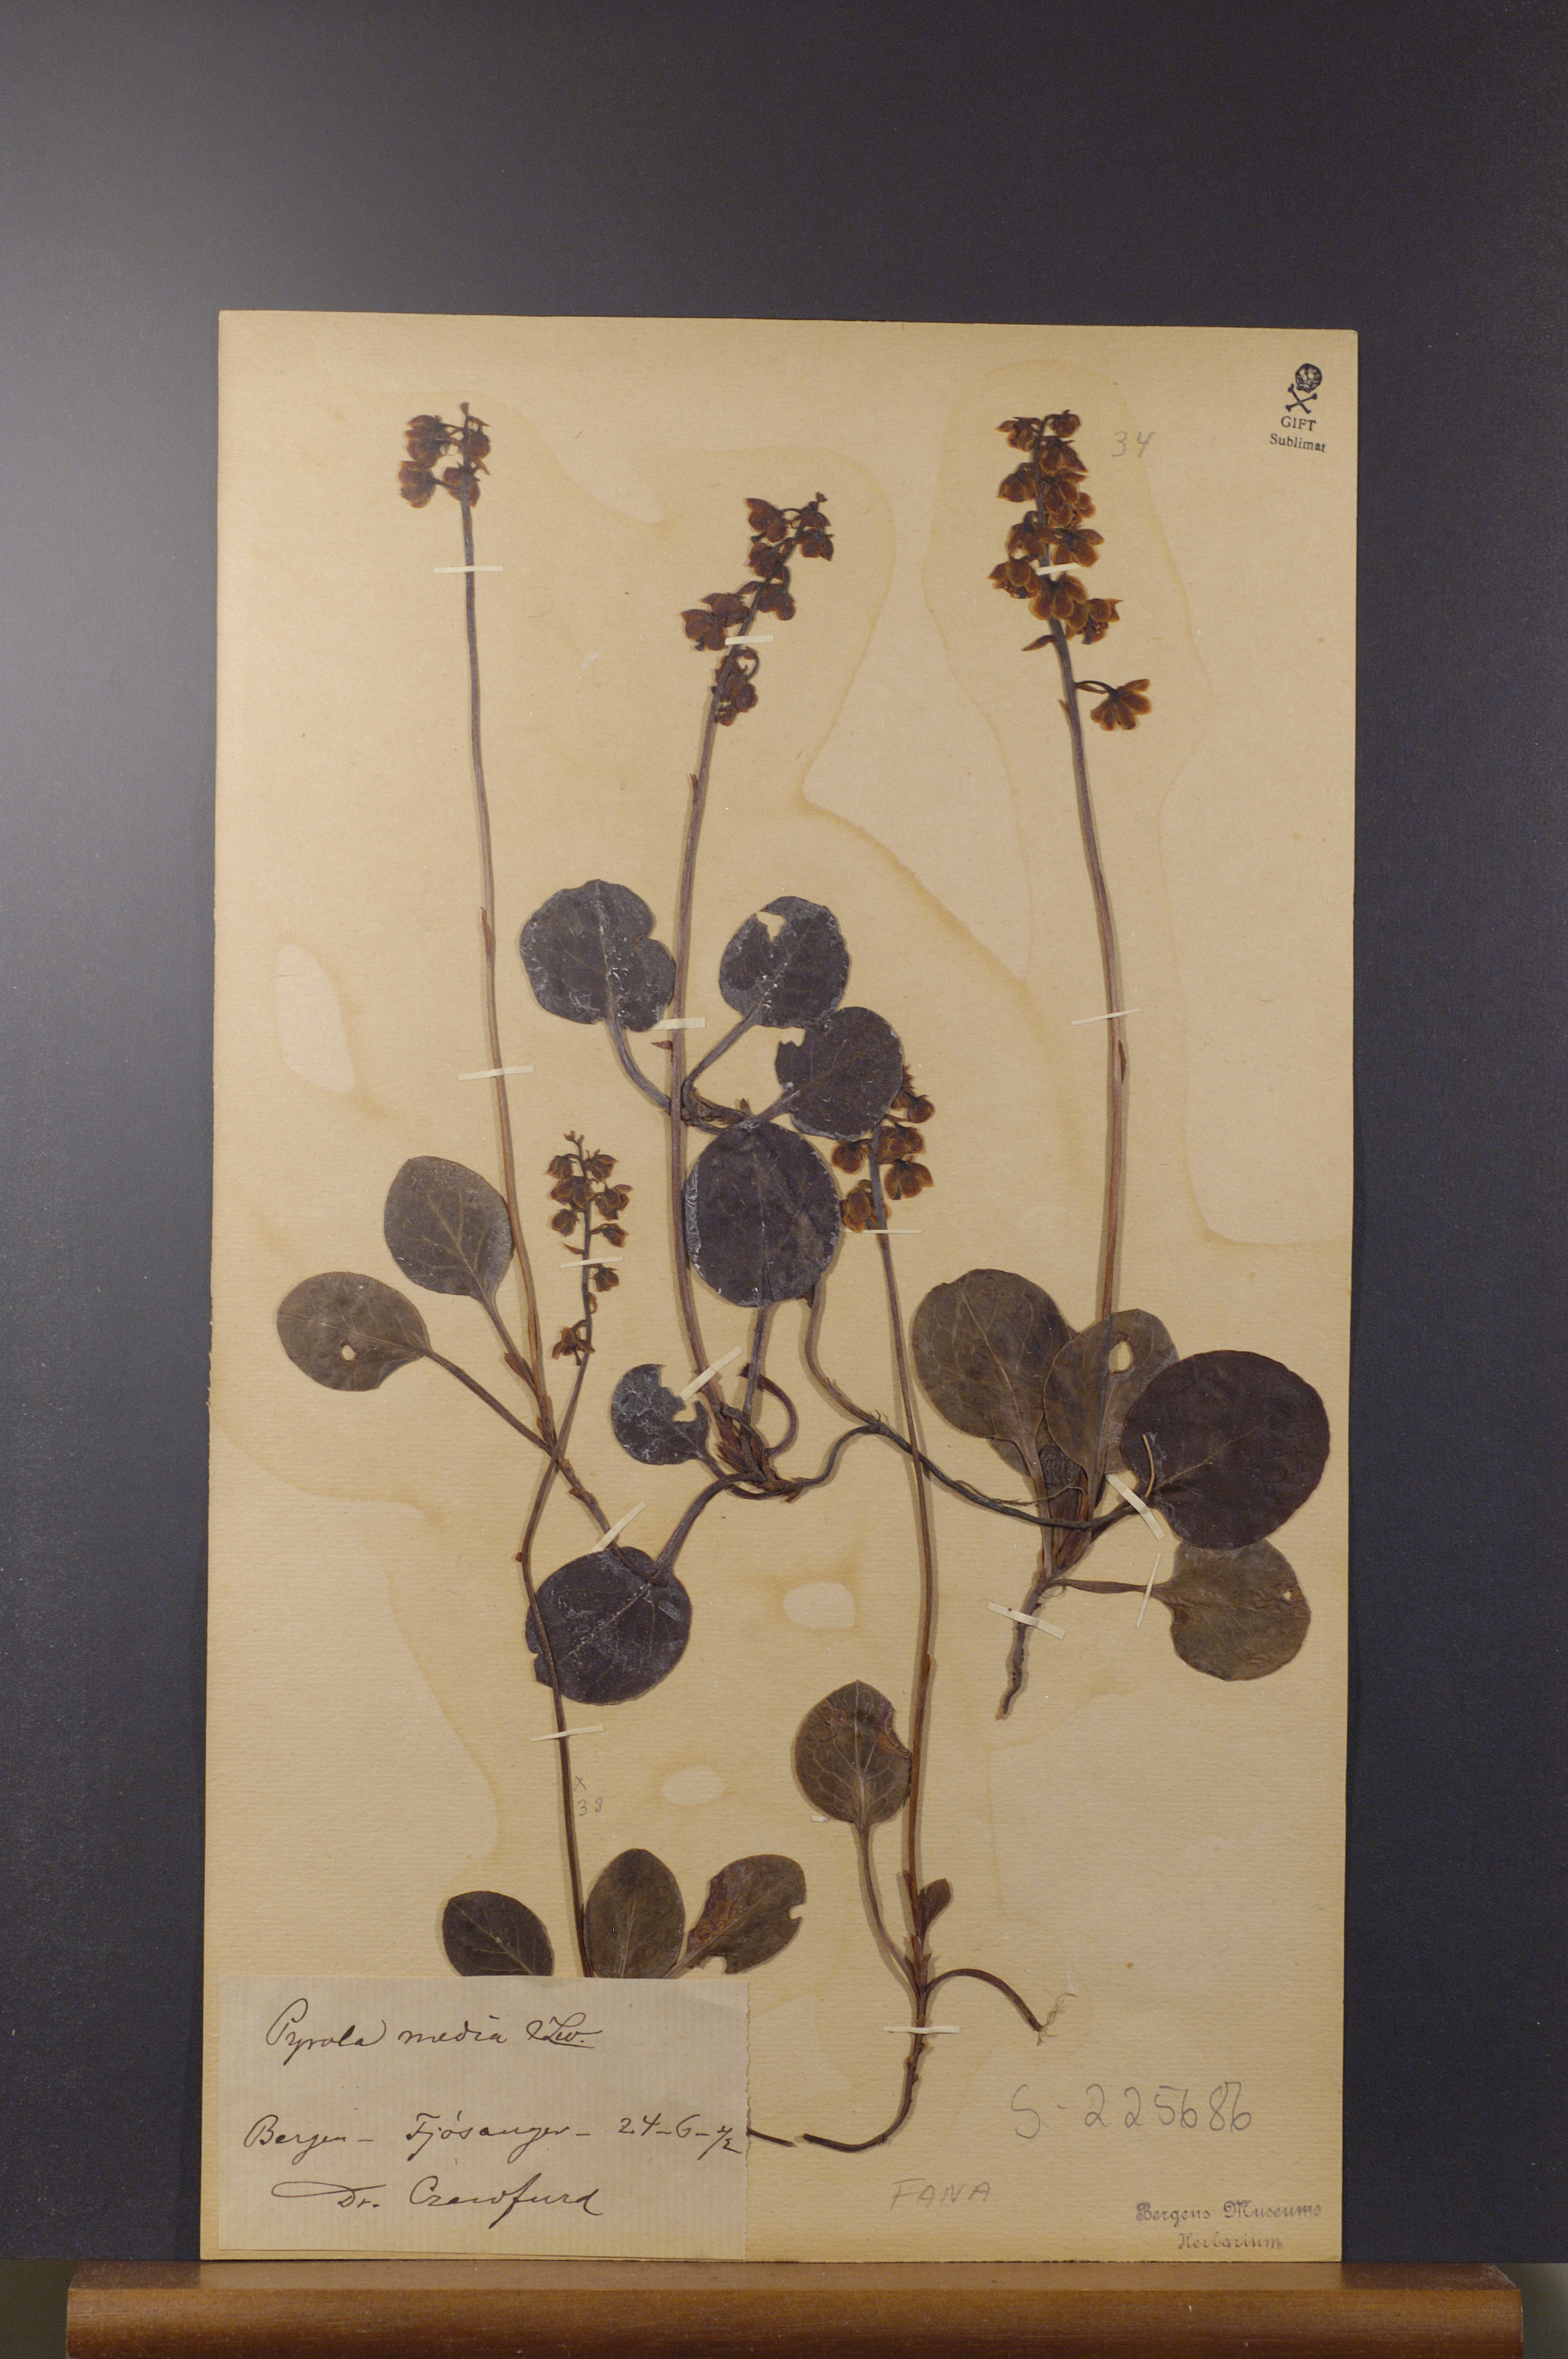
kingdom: Plantae
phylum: Tracheophyta
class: Magnoliopsida
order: Ericales
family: Ericaceae
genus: Pyrola
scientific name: Pyrola media
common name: Intermediate wintergreen
